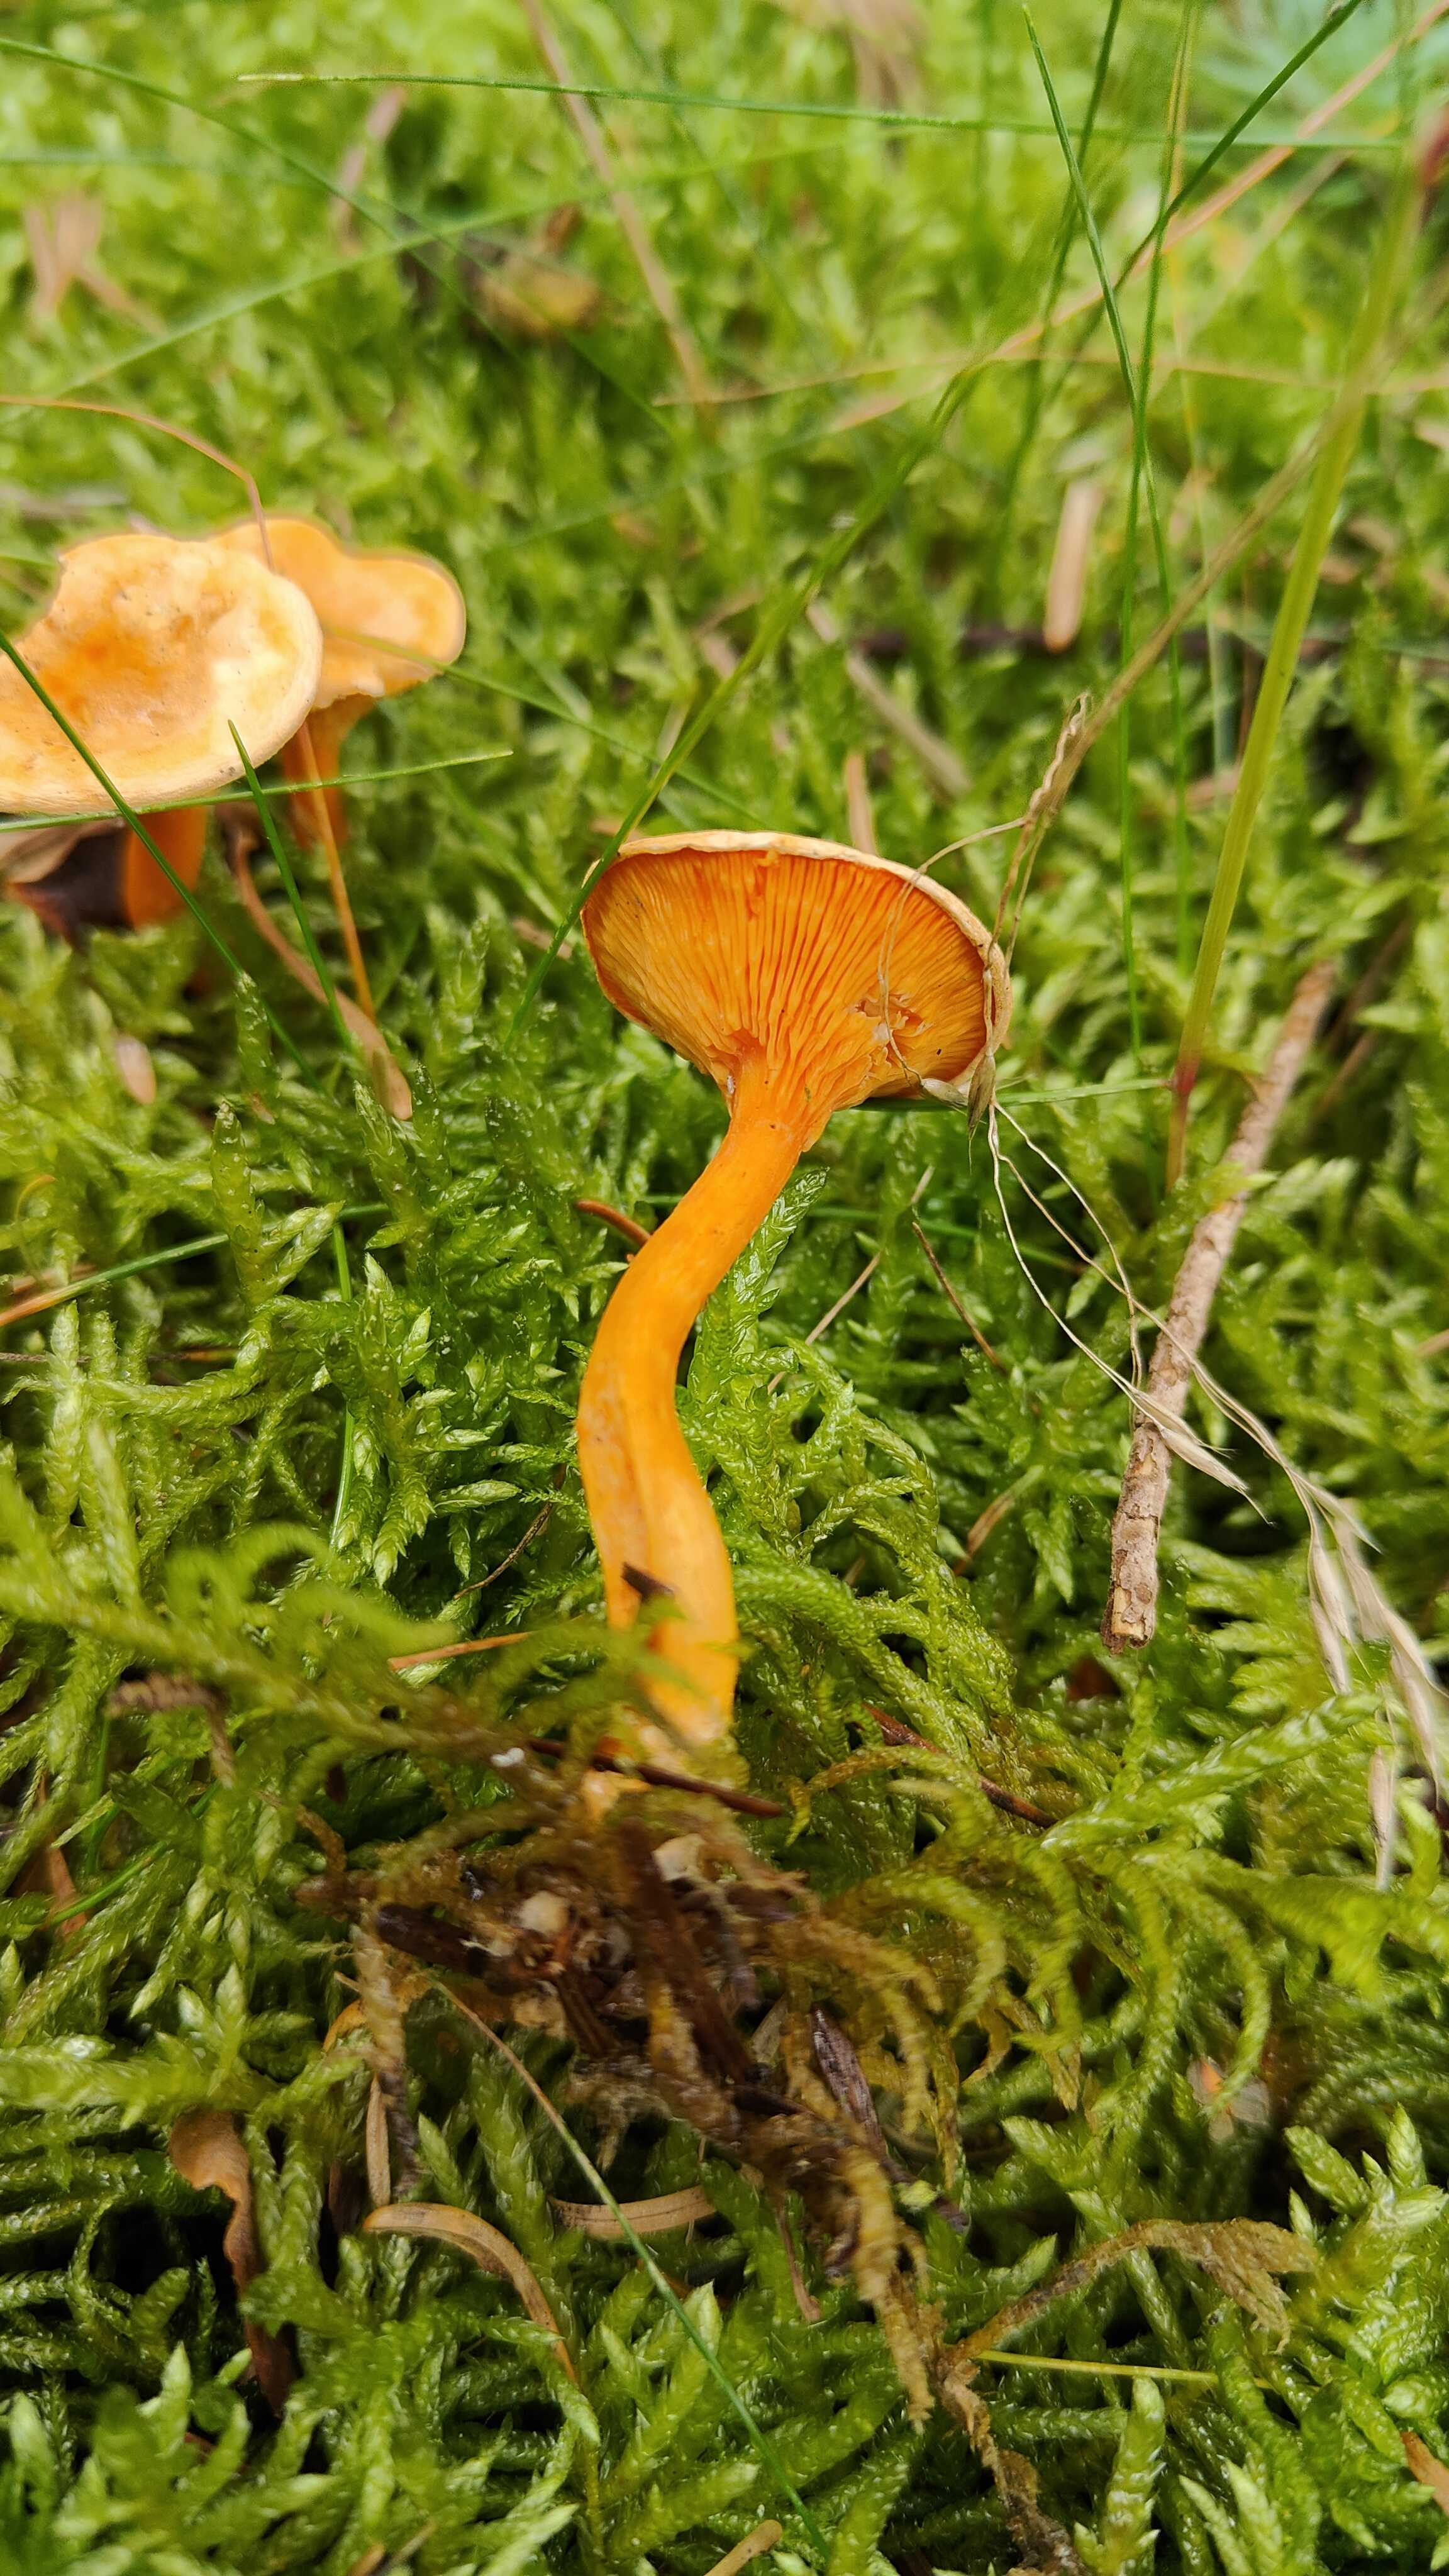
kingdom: Fungi
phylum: Basidiomycota
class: Agaricomycetes
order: Boletales
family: Hygrophoropsidaceae
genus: Hygrophoropsis
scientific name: Hygrophoropsis aurantiaca
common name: almindelig orangekantarel
